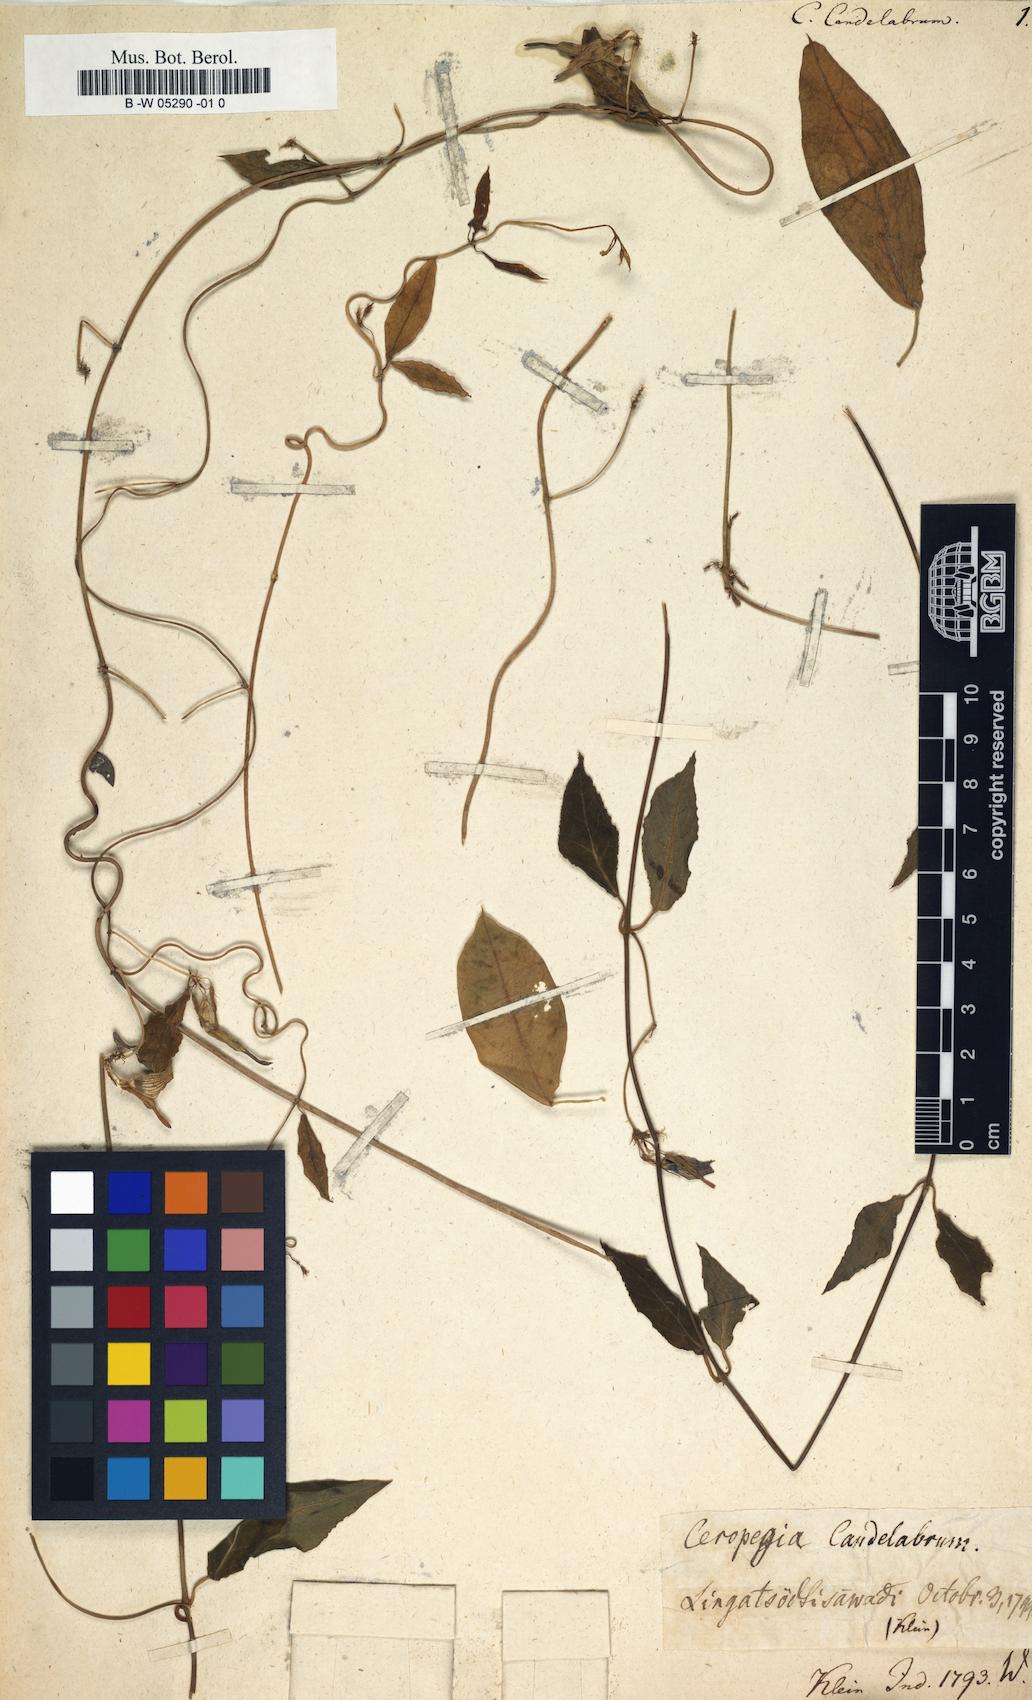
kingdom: Plantae
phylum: Tracheophyta
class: Magnoliopsida
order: Gentianales
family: Apocynaceae
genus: Ceropegia
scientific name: Ceropegia candelabrum
